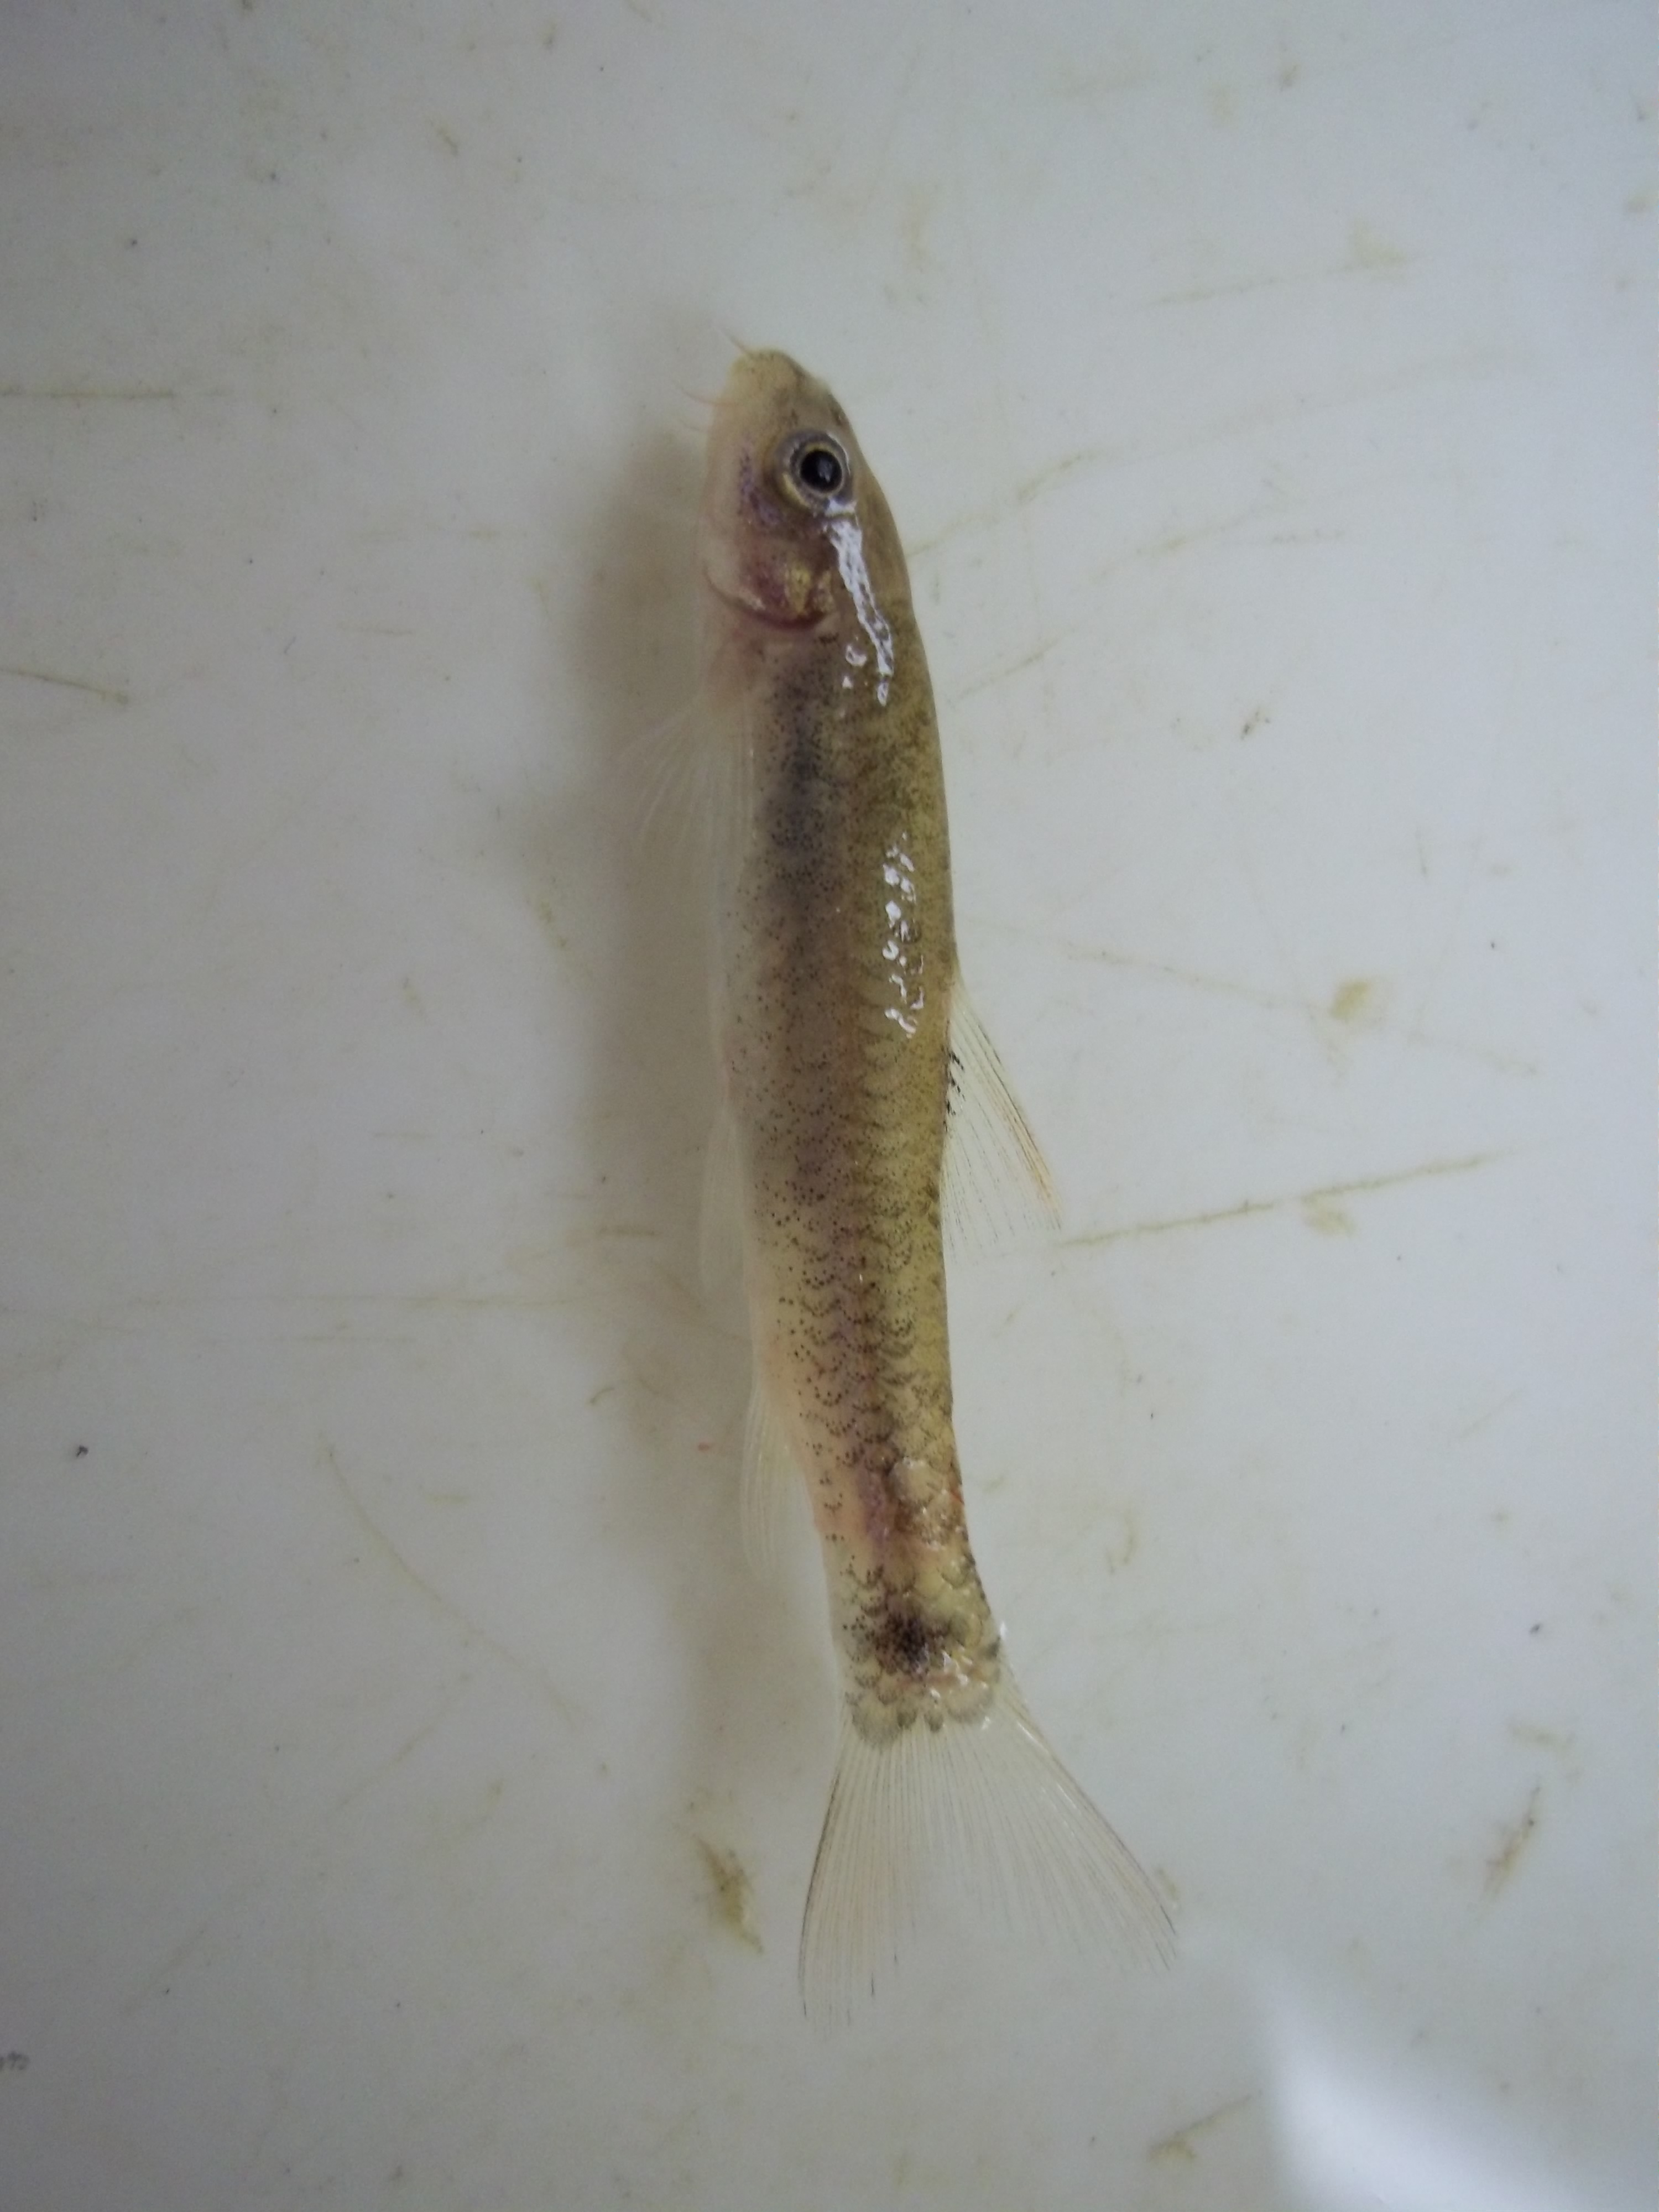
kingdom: Animalia
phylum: Chordata
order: Cypriniformes
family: Cyprinidae
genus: Garra
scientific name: Garra
